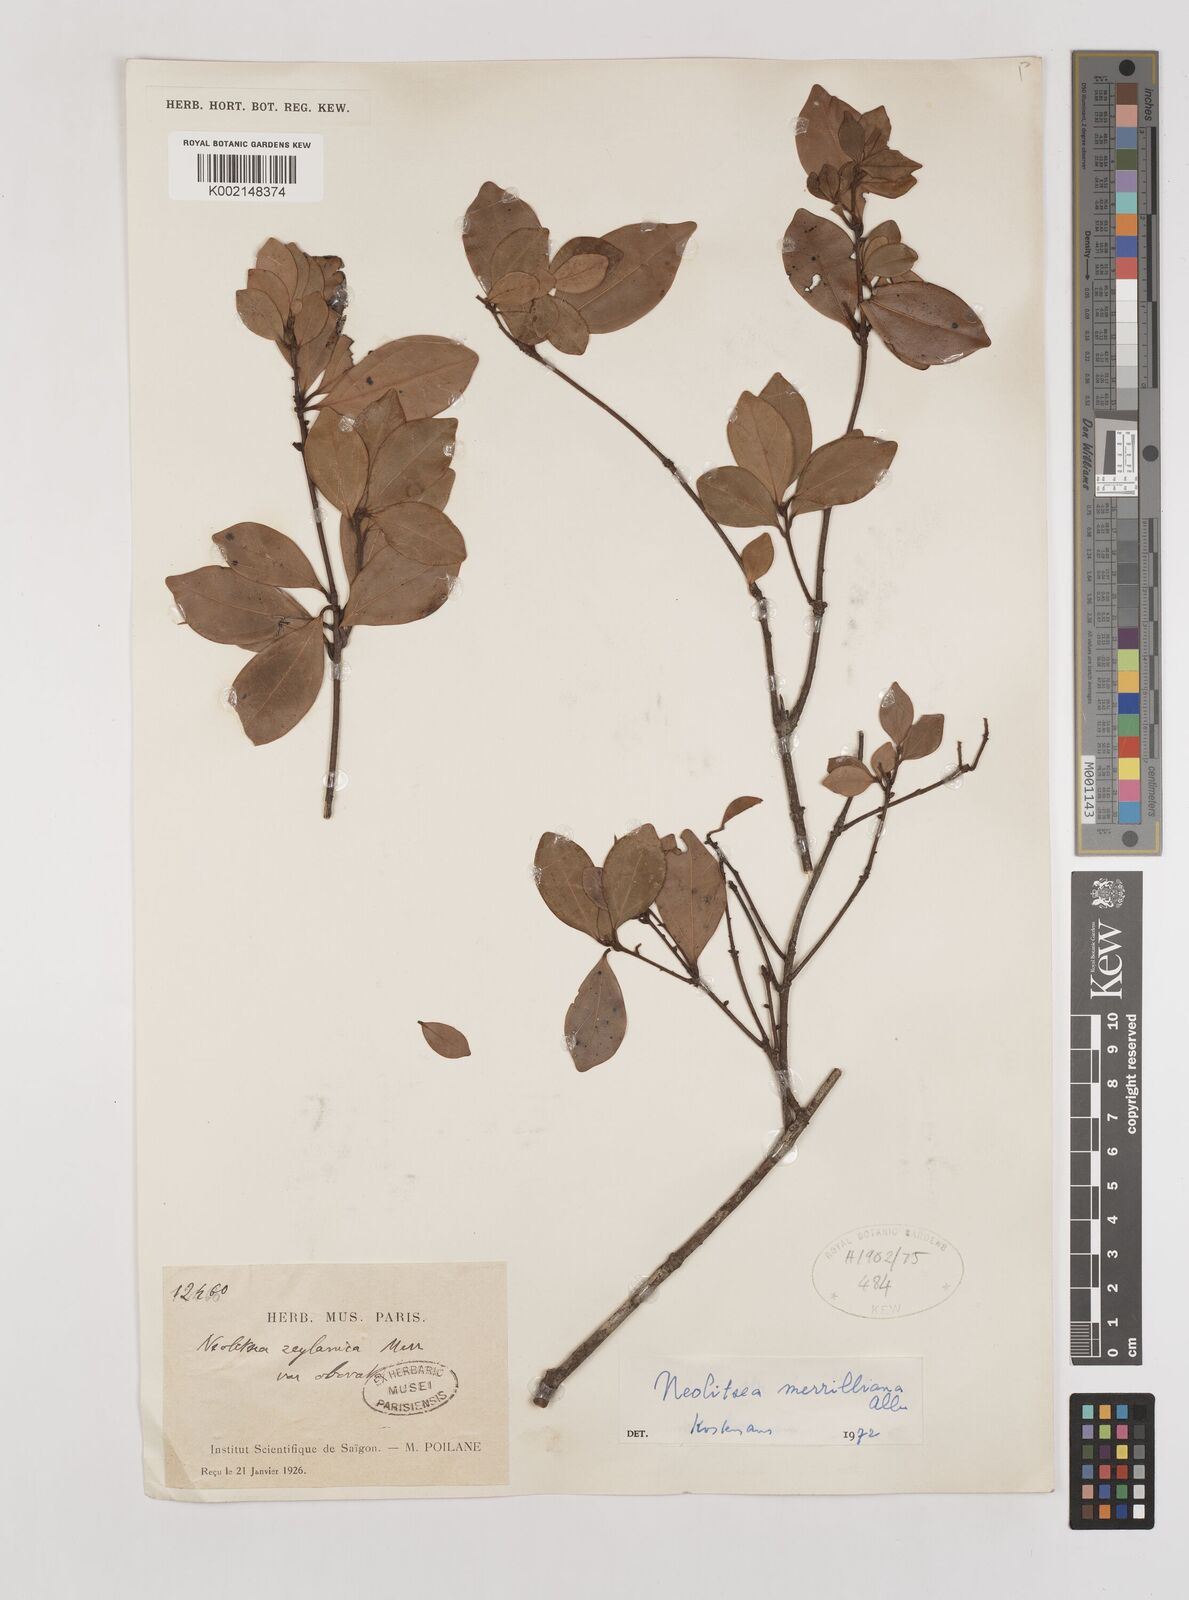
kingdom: Plantae
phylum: Tracheophyta
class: Magnoliopsida
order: Laurales
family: Lauraceae
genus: Neolitsea
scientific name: Neolitsea buisanensis
